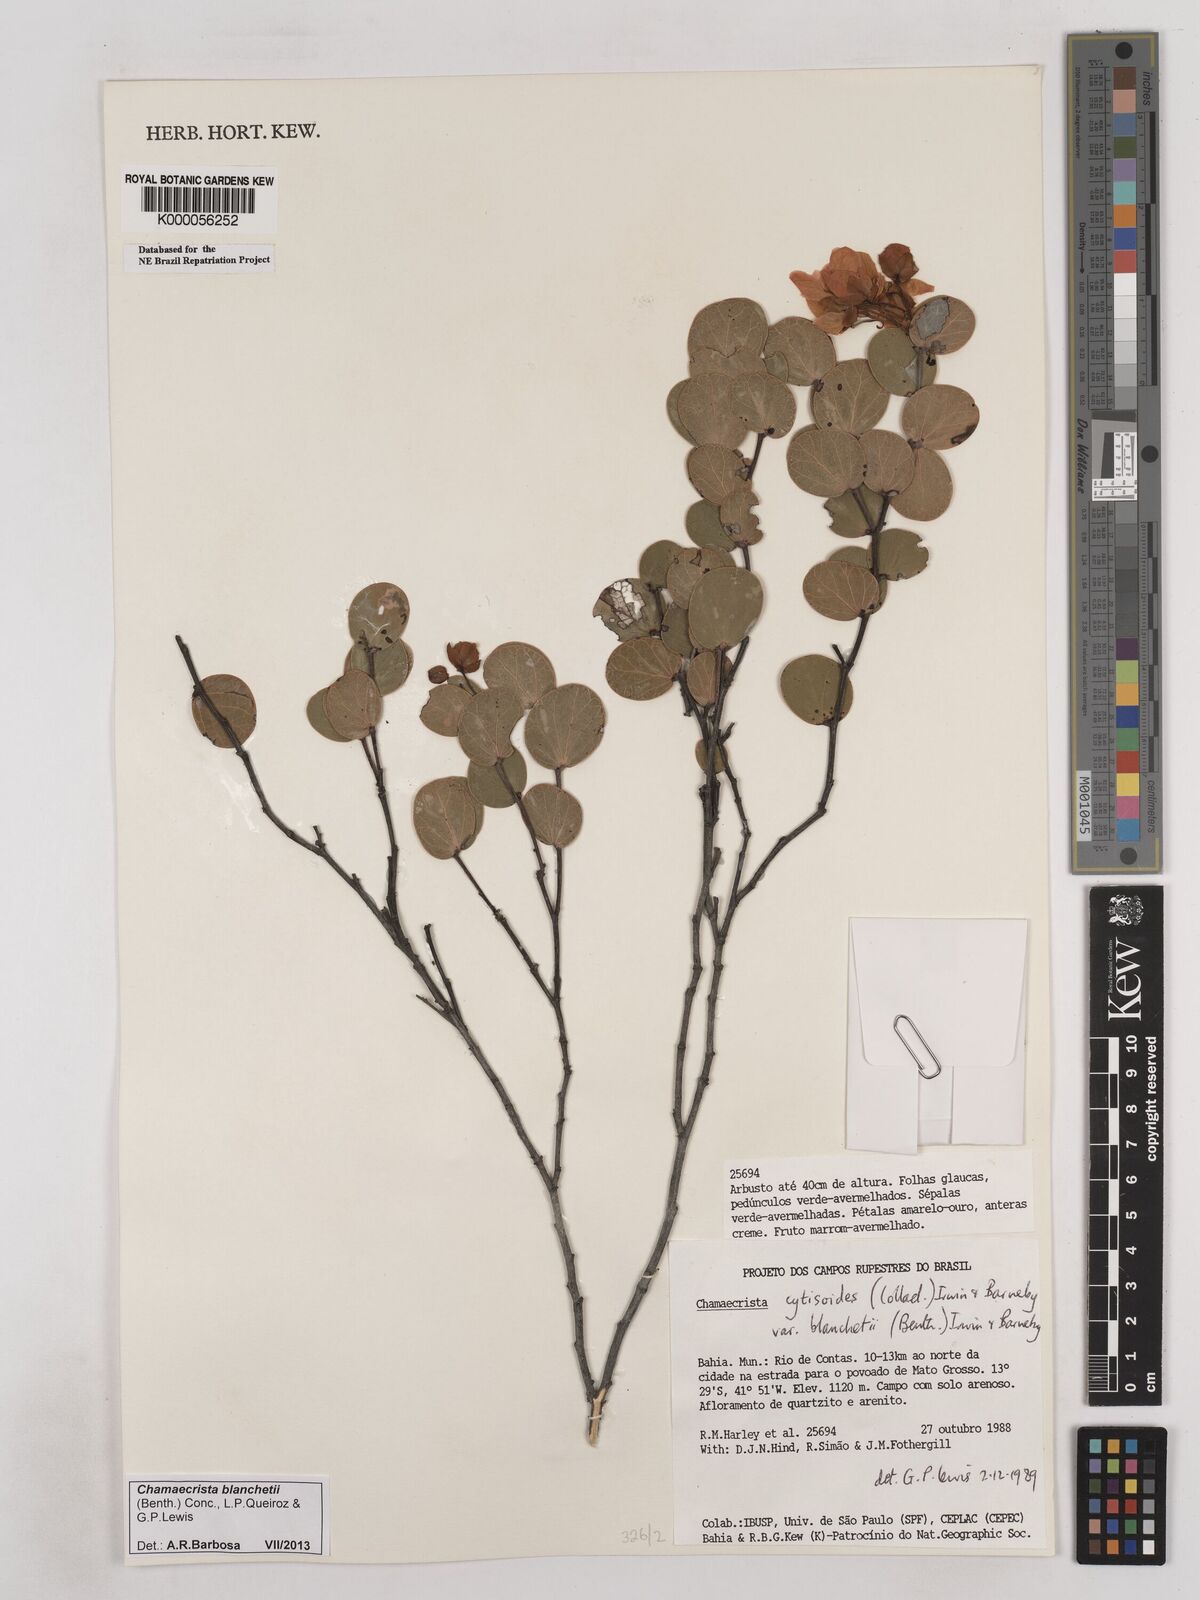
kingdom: Plantae
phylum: Tracheophyta
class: Magnoliopsida
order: Fabales
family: Fabaceae
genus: Chamaecrista
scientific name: Chamaecrista cytisoides
